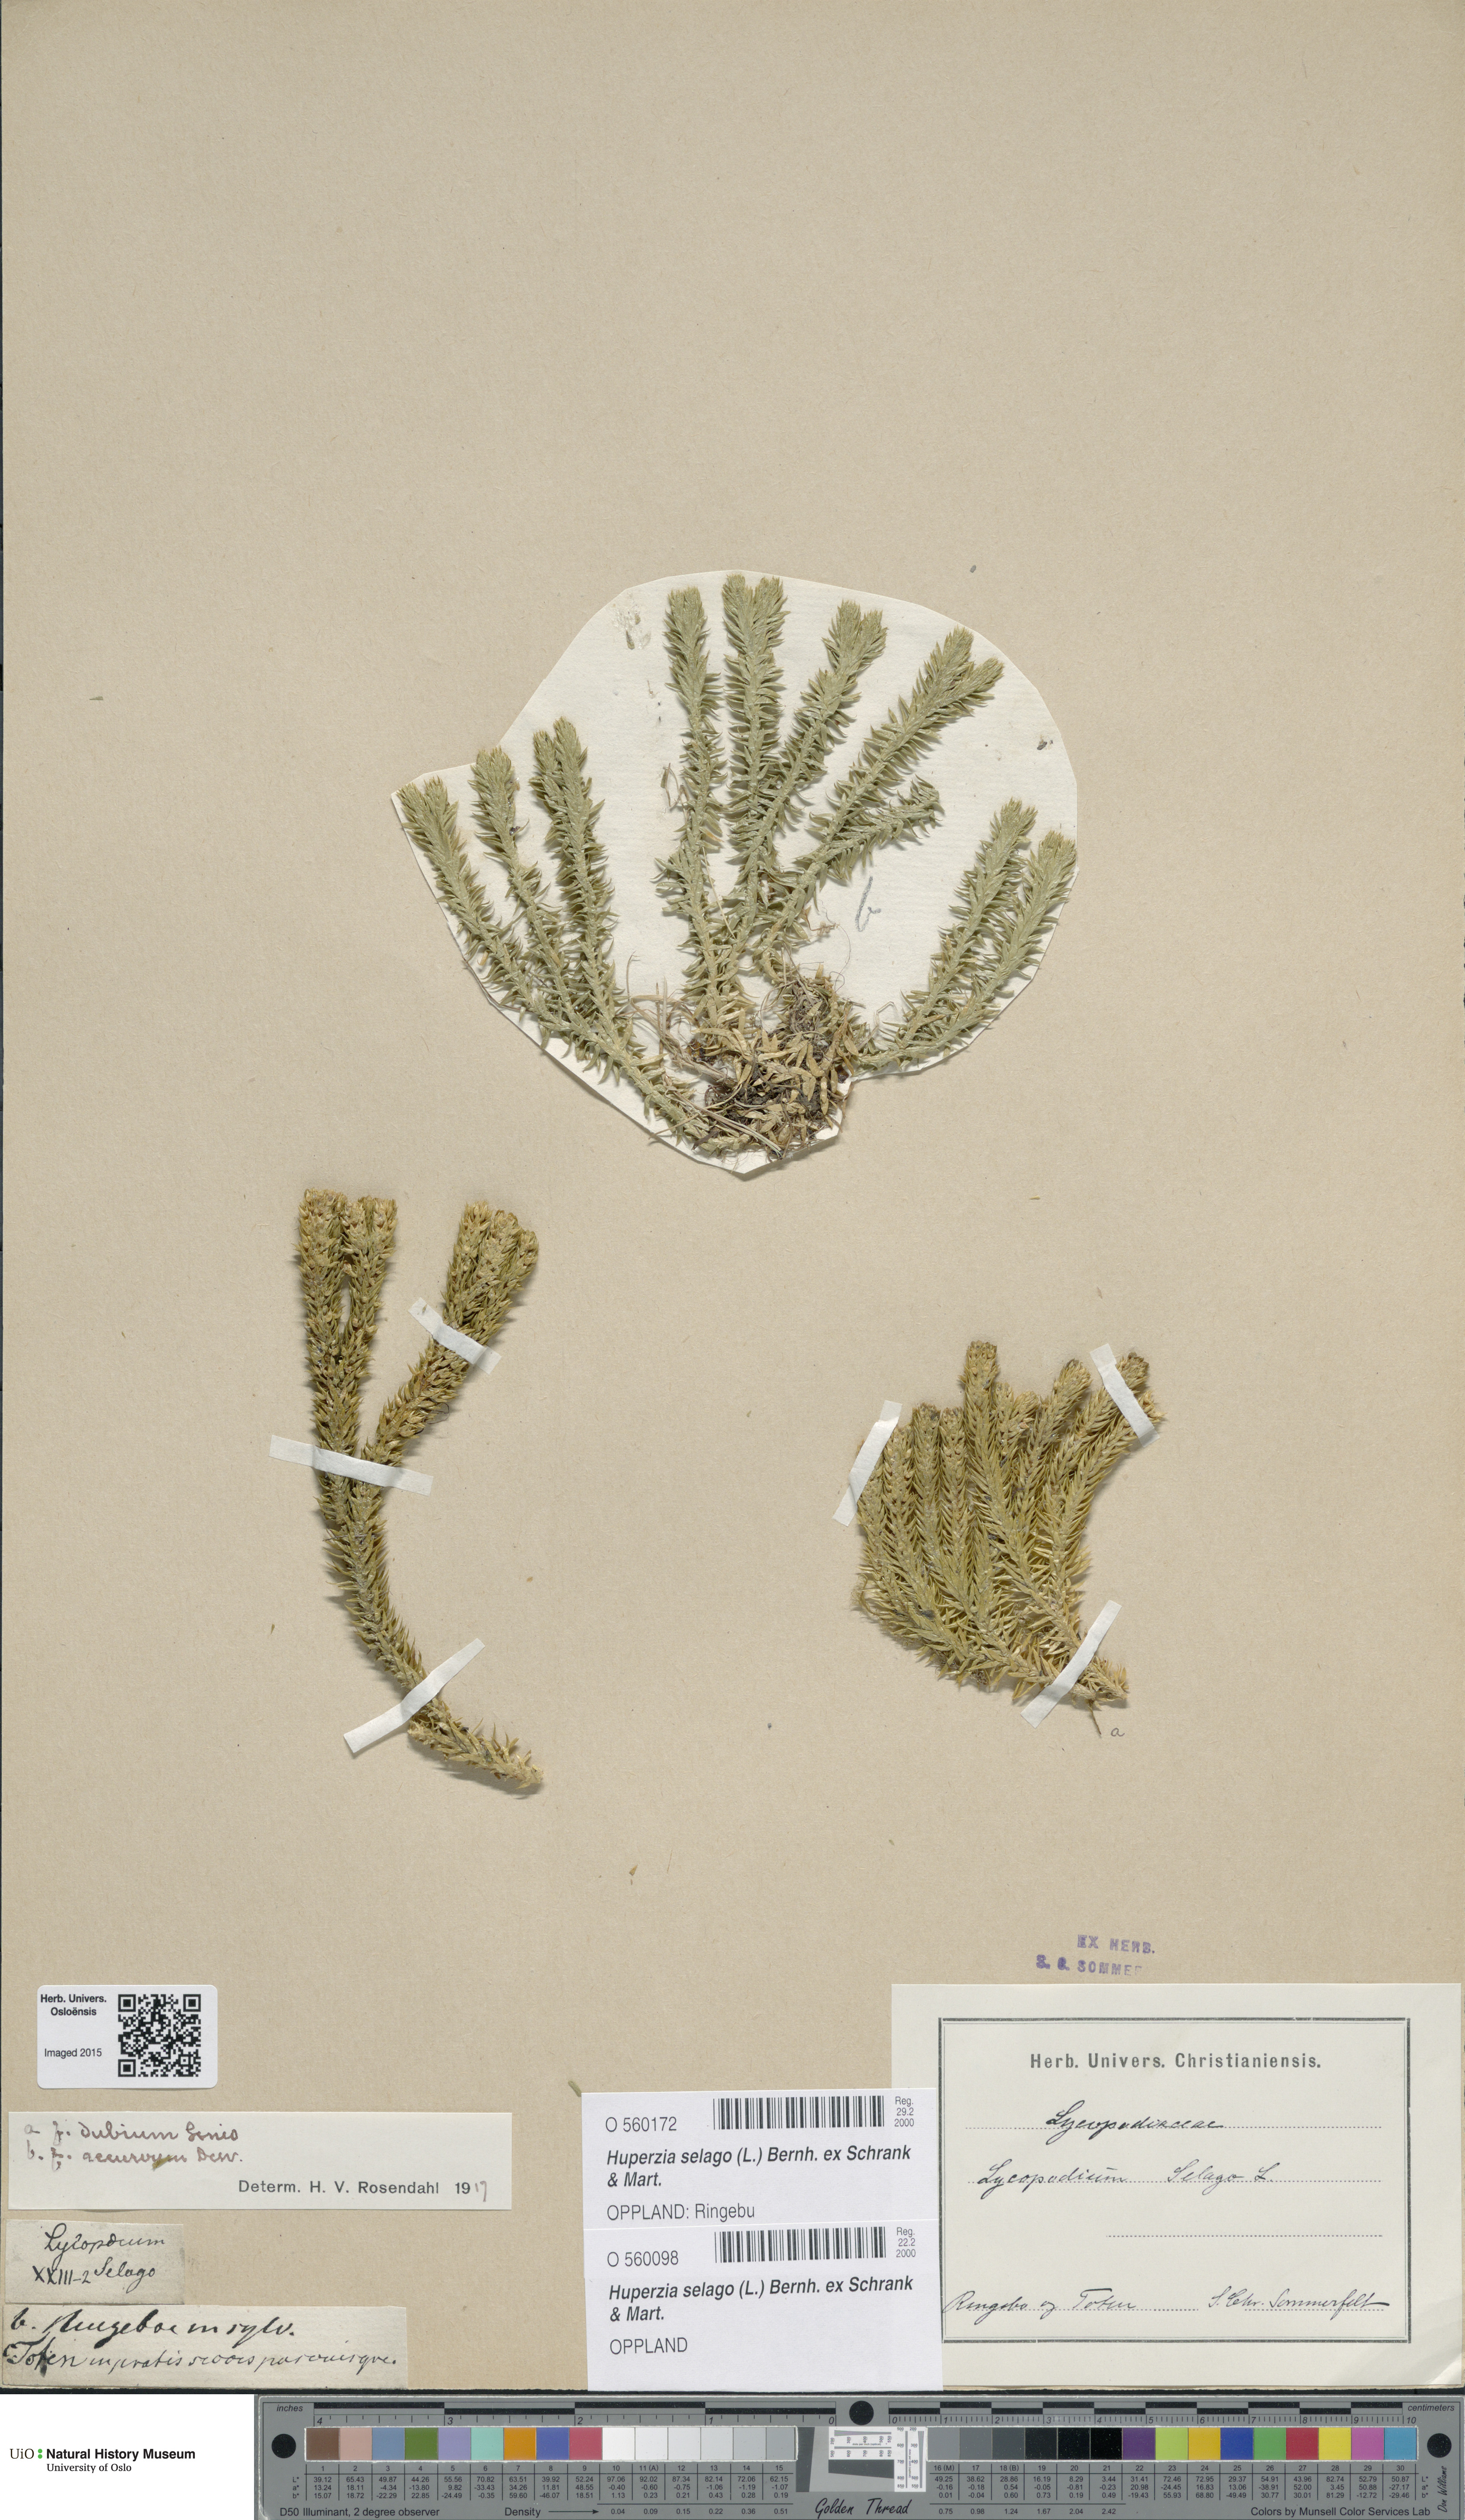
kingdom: Plantae
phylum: Tracheophyta
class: Lycopodiopsida
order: Lycopodiales
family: Lycopodiaceae
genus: Huperzia
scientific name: Huperzia selago
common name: Northern firmoss
